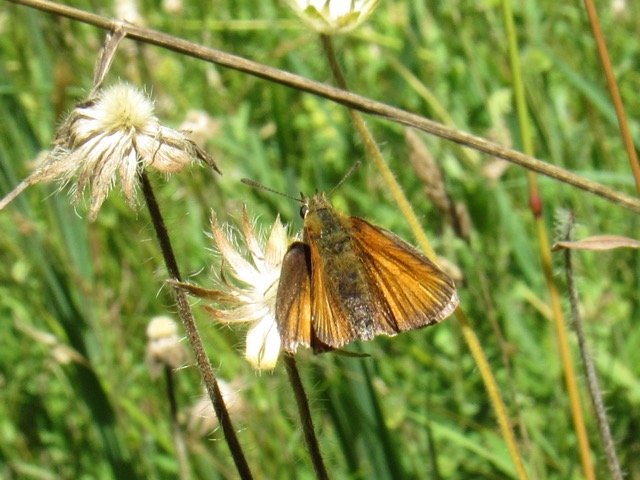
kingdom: Animalia
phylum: Arthropoda
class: Insecta
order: Lepidoptera
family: Hesperiidae
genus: Thymelicus
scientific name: Thymelicus lineola
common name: European Skipper
